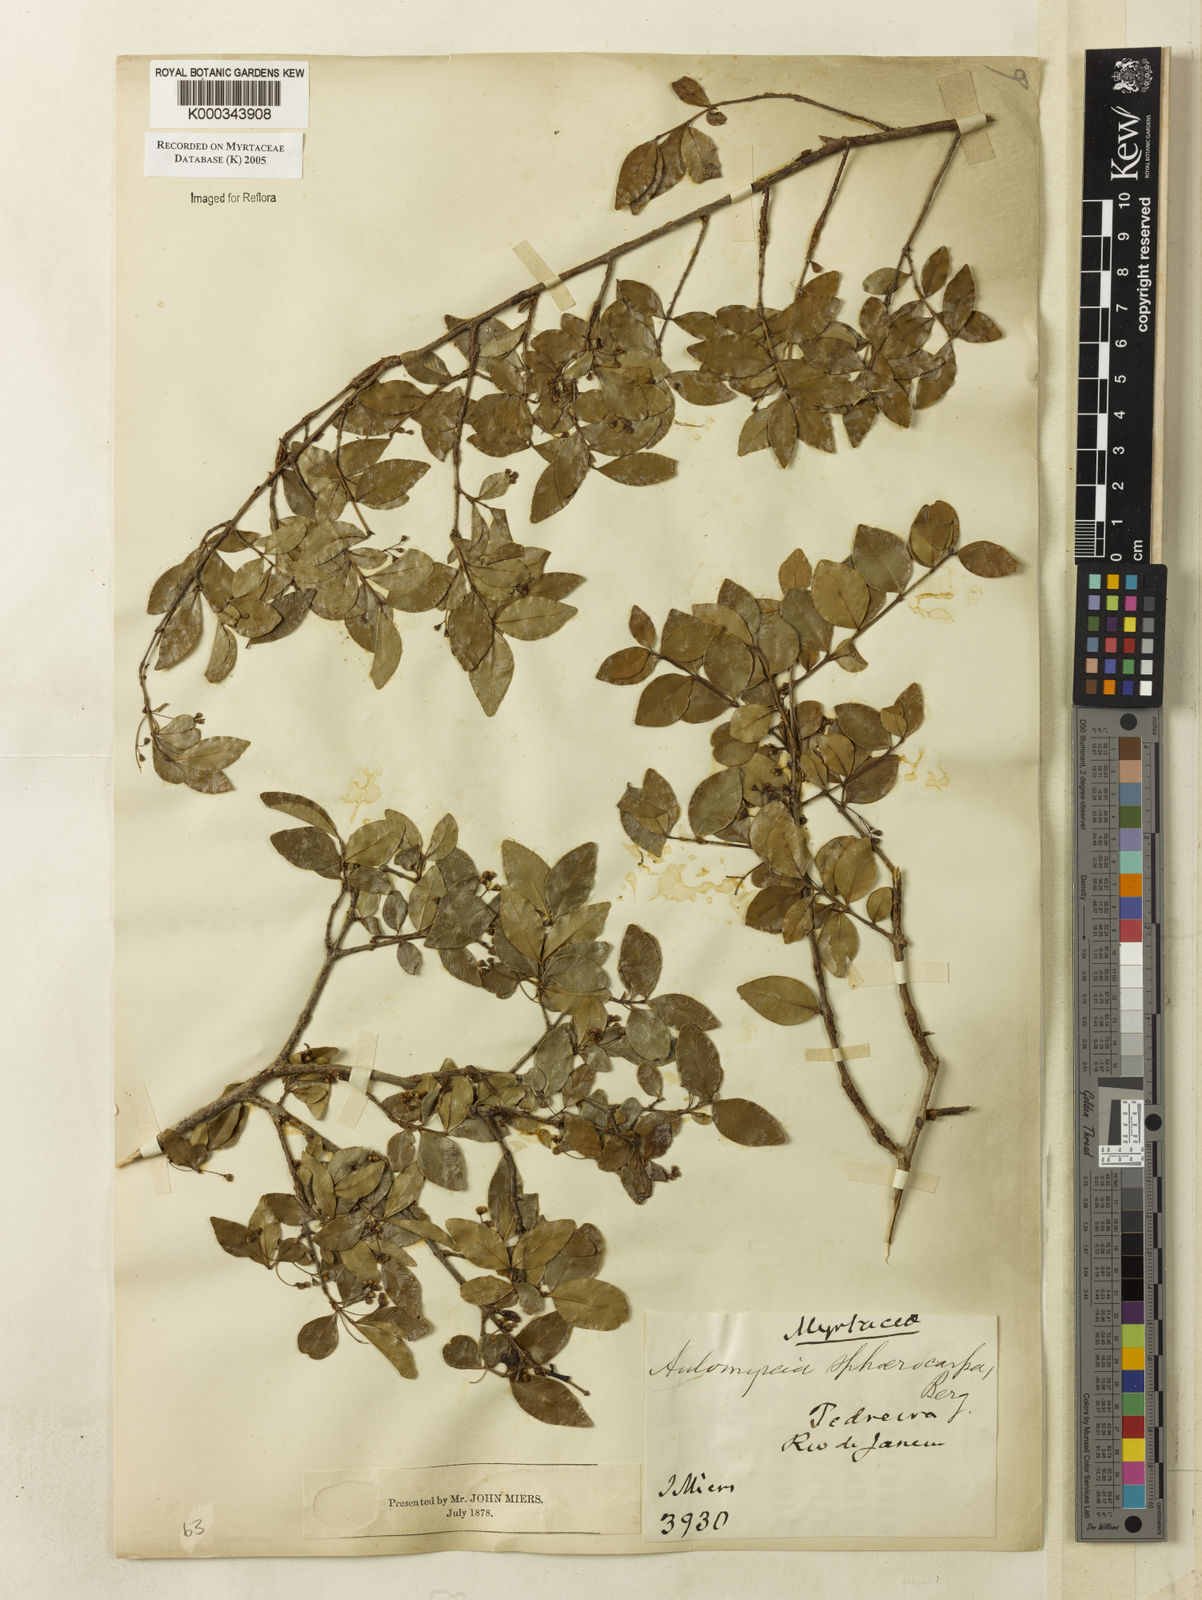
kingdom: Plantae
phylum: Tracheophyta
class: Magnoliopsida
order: Myrtales
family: Myrtaceae
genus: Myrcia
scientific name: Myrcia multiflora
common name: Pedra hume
